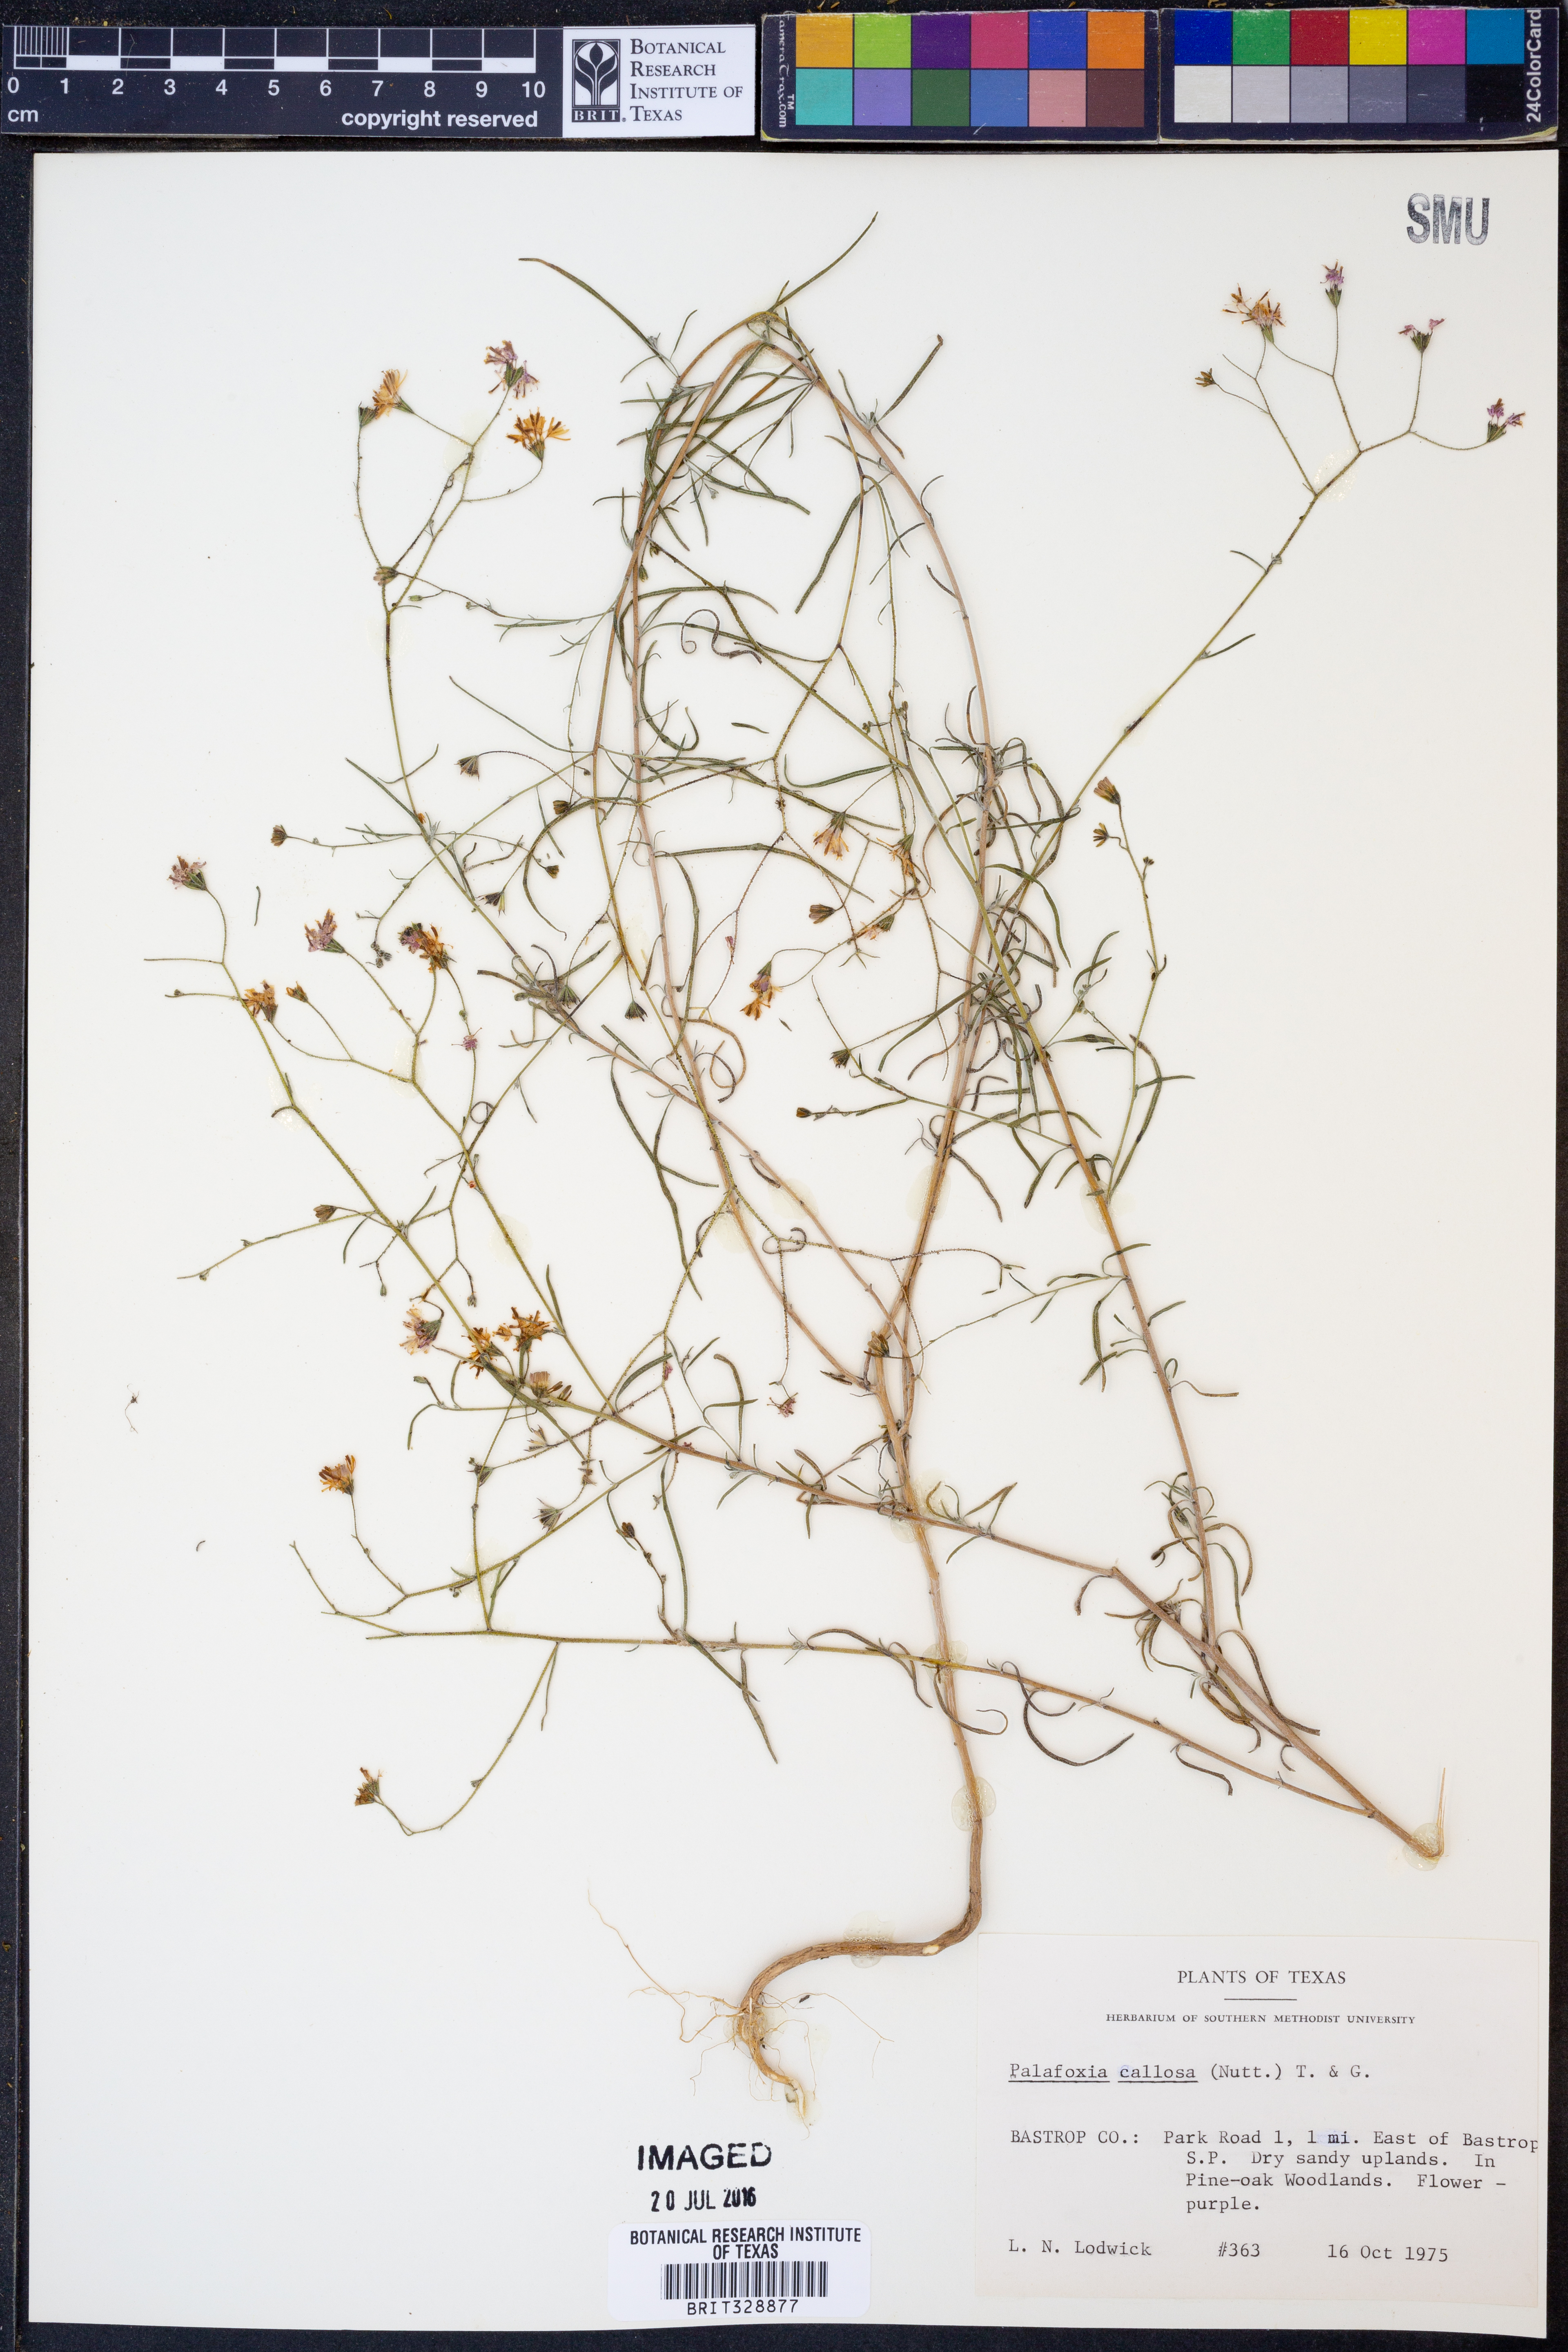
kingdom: Plantae
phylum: Tracheophyta
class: Magnoliopsida
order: Asterales
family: Asteraceae
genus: Palafoxia
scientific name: Palafoxia callosa
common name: Small palafox
